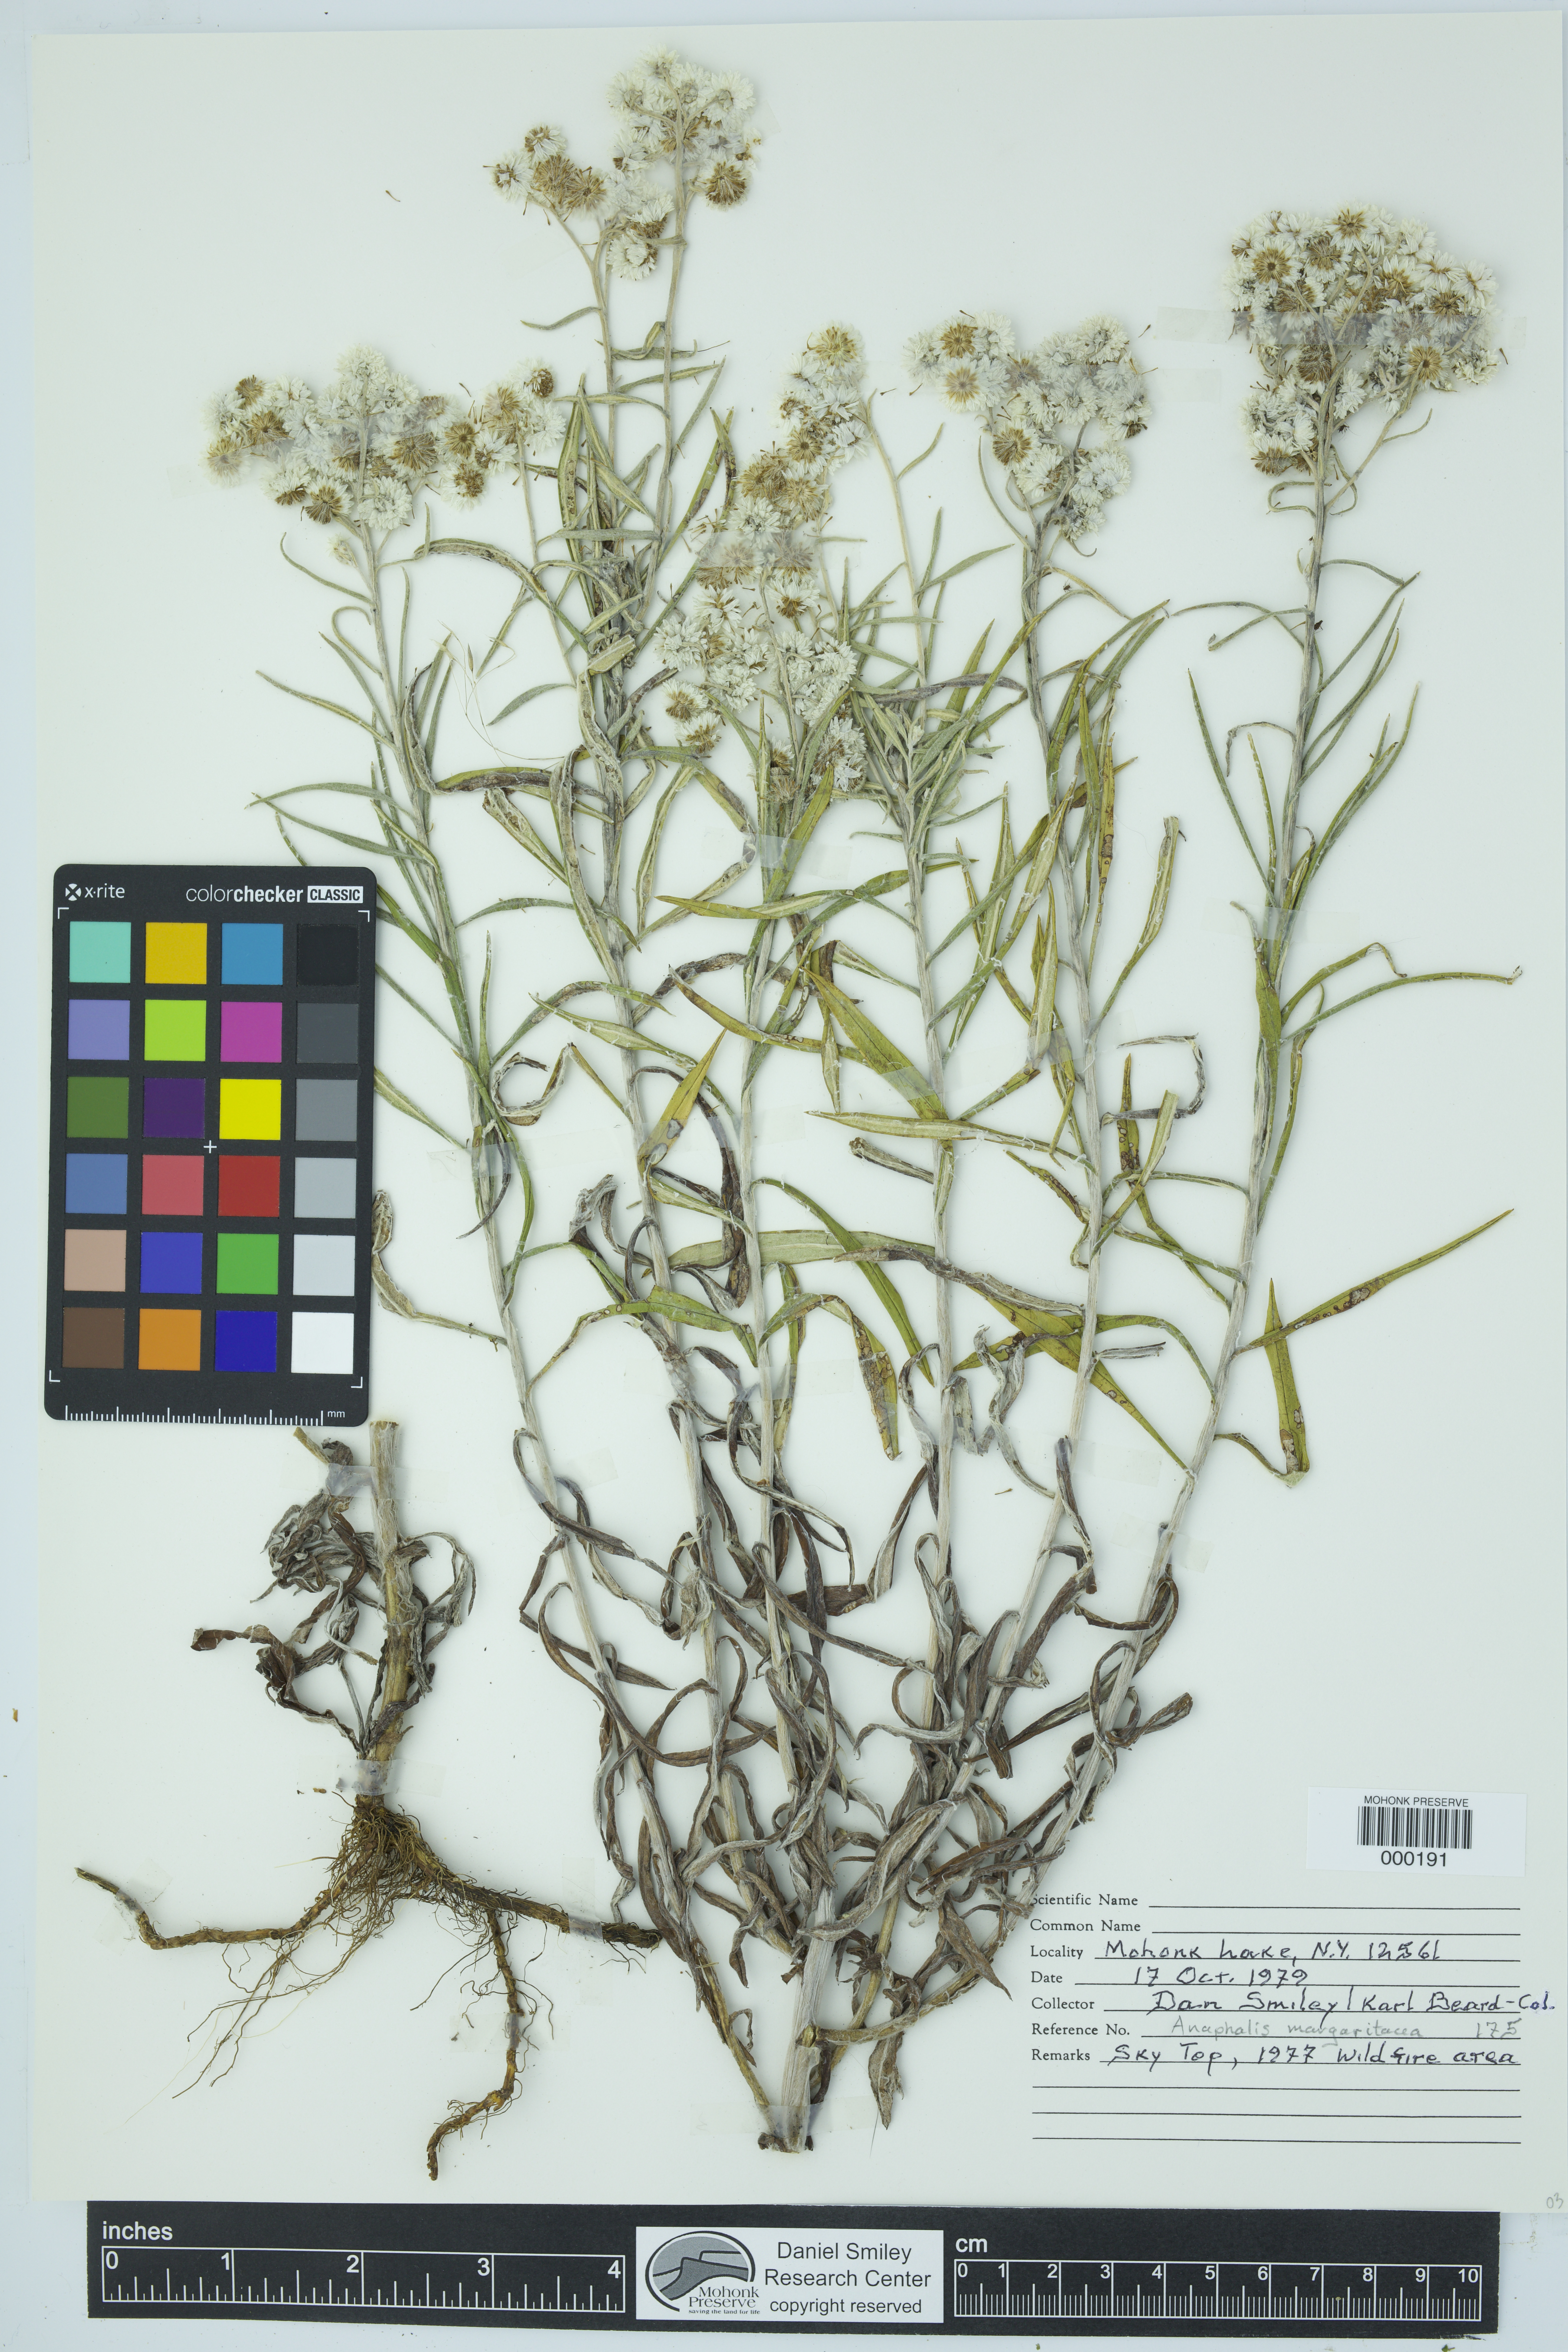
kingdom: Plantae
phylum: Tracheophyta
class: Magnoliopsida
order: Asterales
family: Asteraceae
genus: Anaphalis
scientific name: Anaphalis margaritacea
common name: Pearly everlasting
